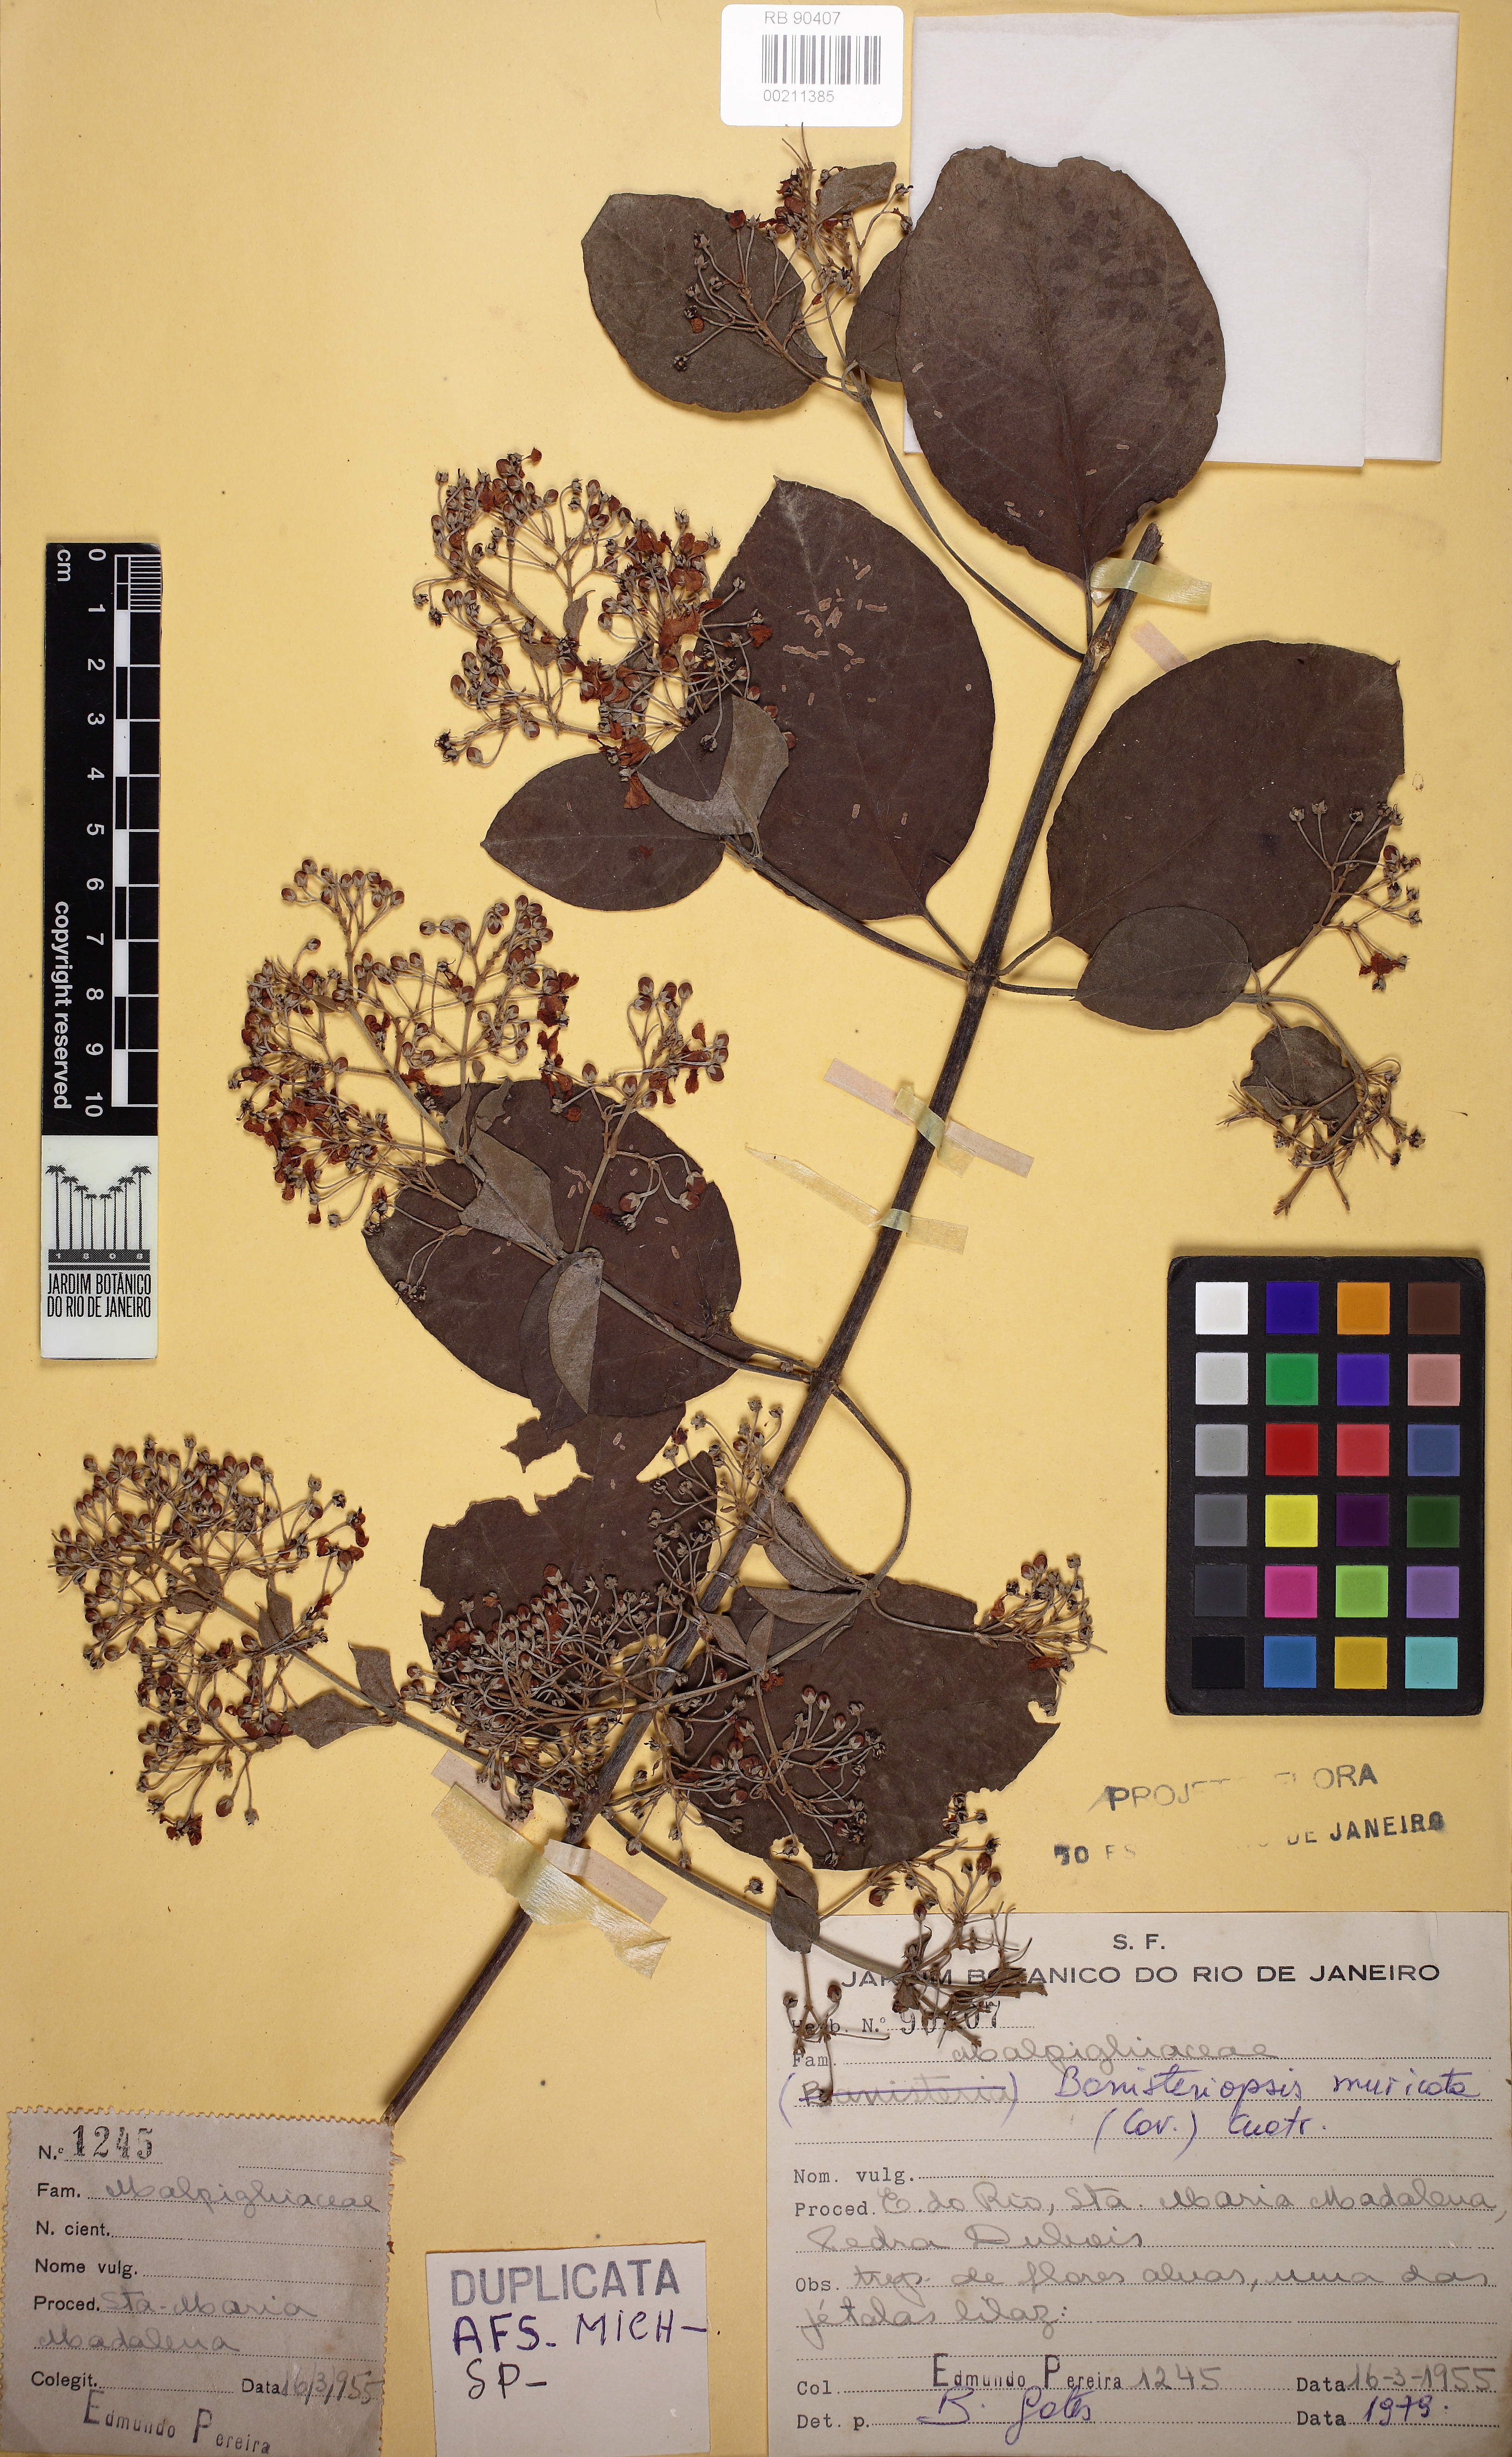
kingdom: Plantae
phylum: Tracheophyta
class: Magnoliopsida
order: Malpighiales
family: Malpighiaceae
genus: Banisteriopsis
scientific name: Banisteriopsis muricata
